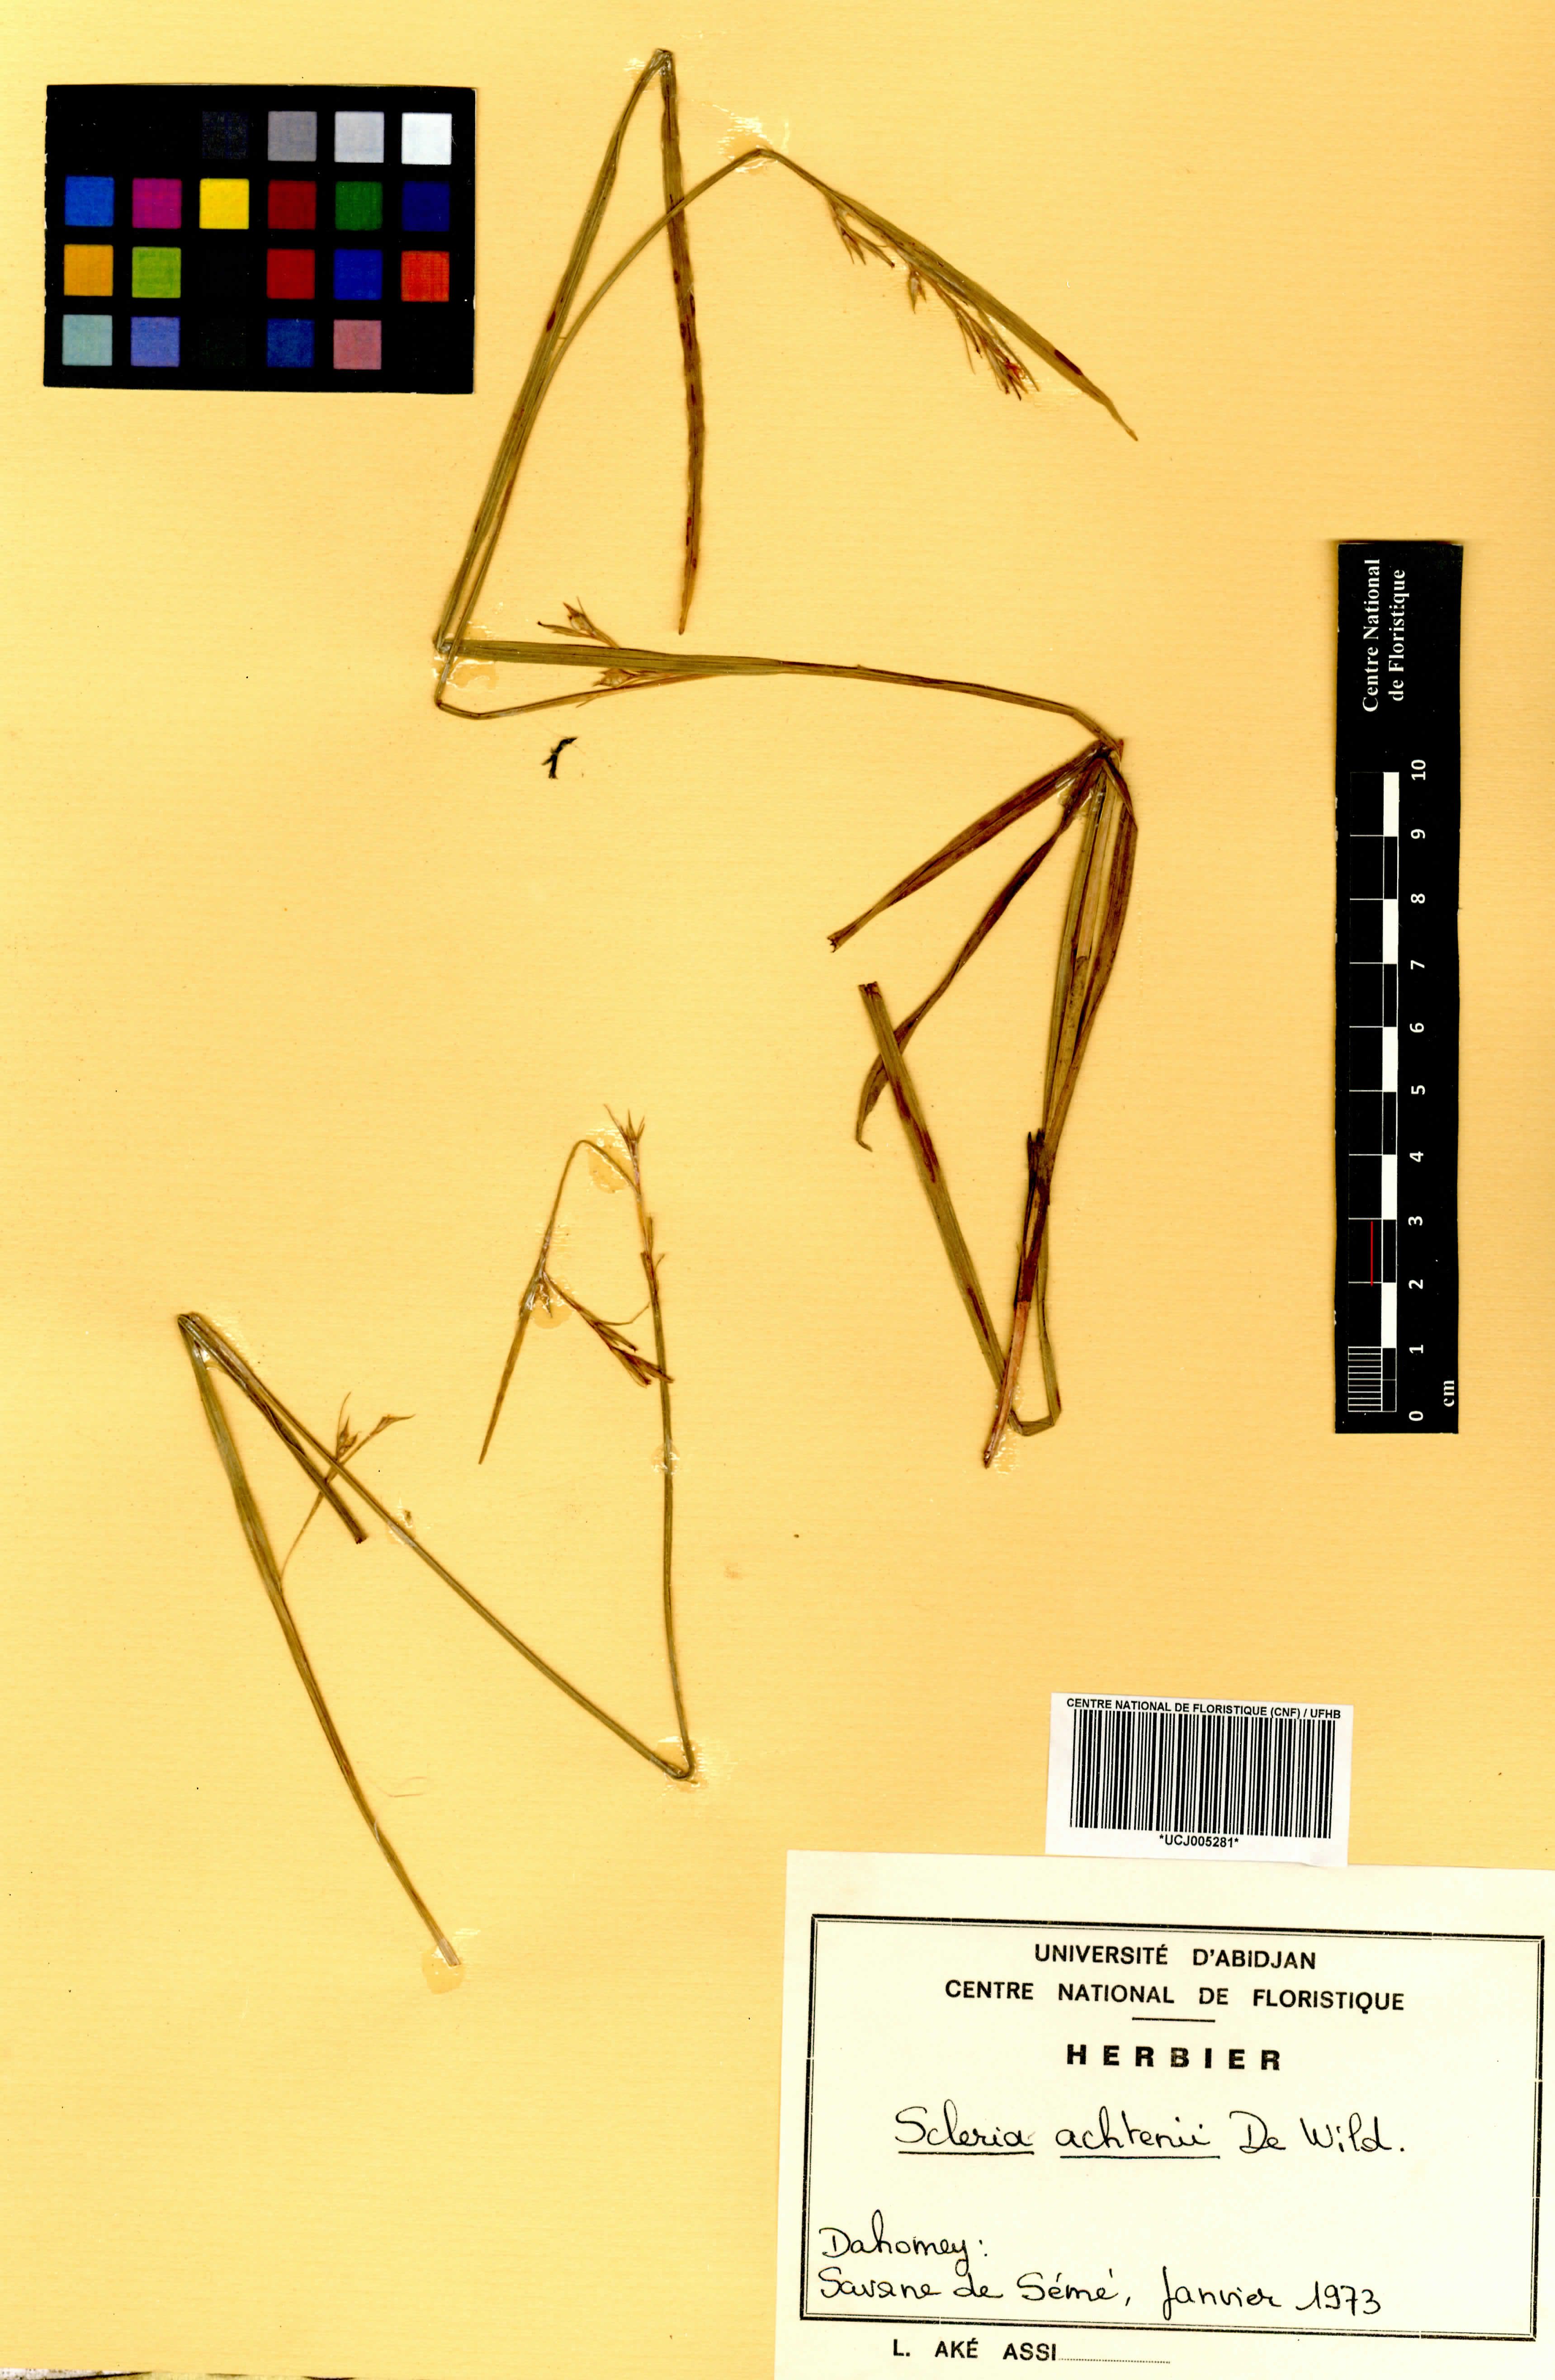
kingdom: Plantae
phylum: Tracheophyta
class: Liliopsida
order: Poales
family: Cyperaceae
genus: Scleria
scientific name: Scleria achtenii
